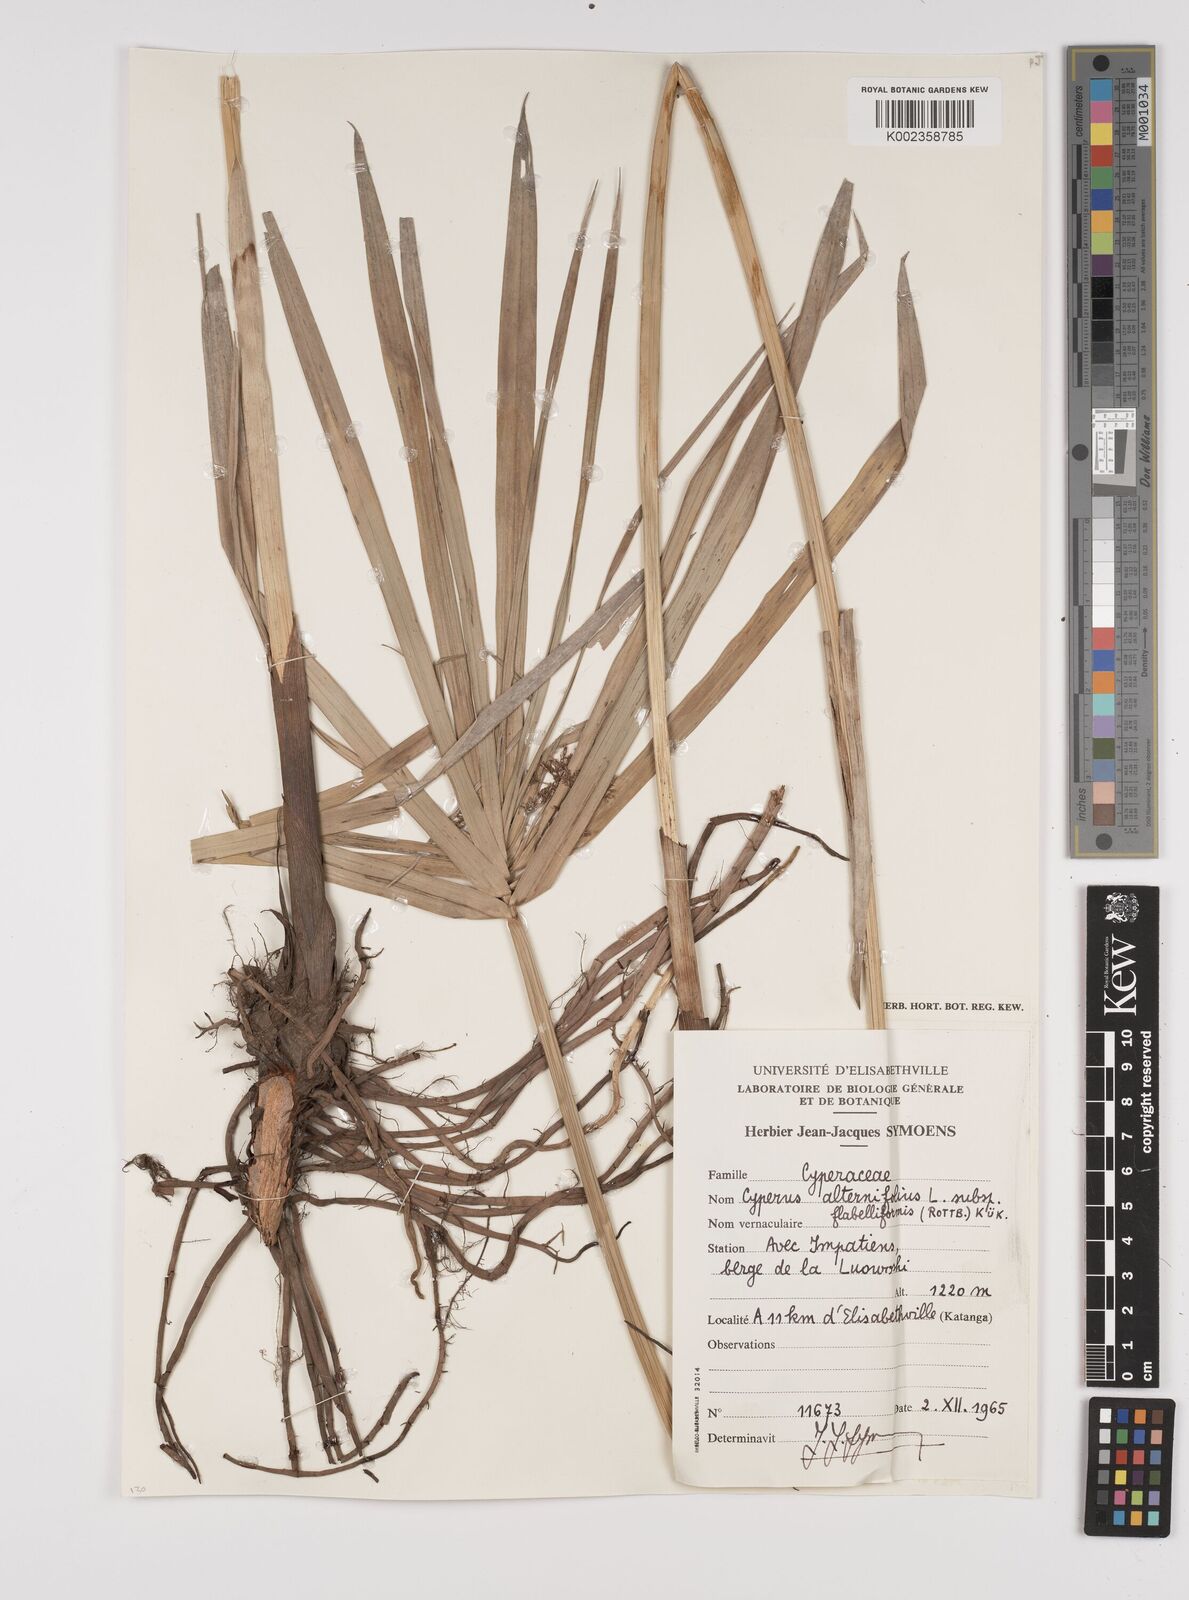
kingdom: Plantae
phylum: Tracheophyta
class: Liliopsida
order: Poales
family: Cyperaceae
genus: Cyperus
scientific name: Cyperus alternifolius
